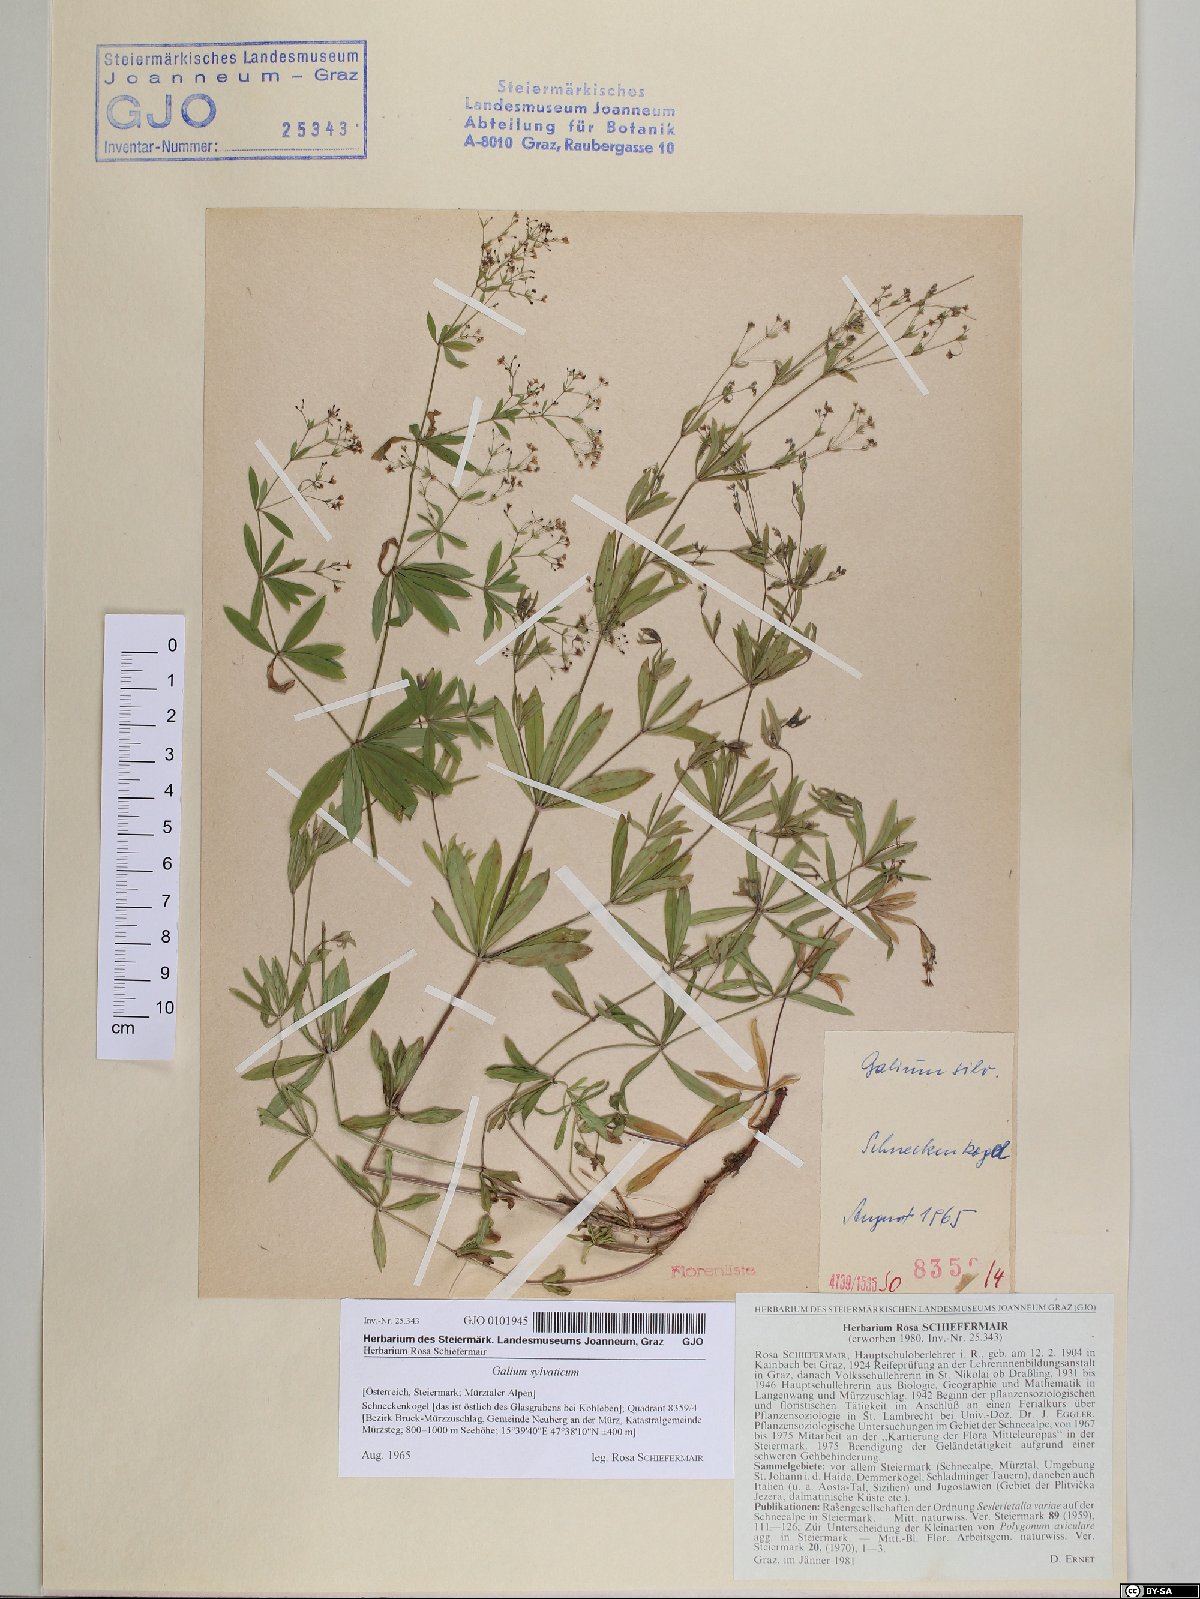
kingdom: Plantae
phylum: Tracheophyta
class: Magnoliopsida
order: Gentianales
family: Rubiaceae
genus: Galium
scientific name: Galium sylvaticum
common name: Wood bedstraw
